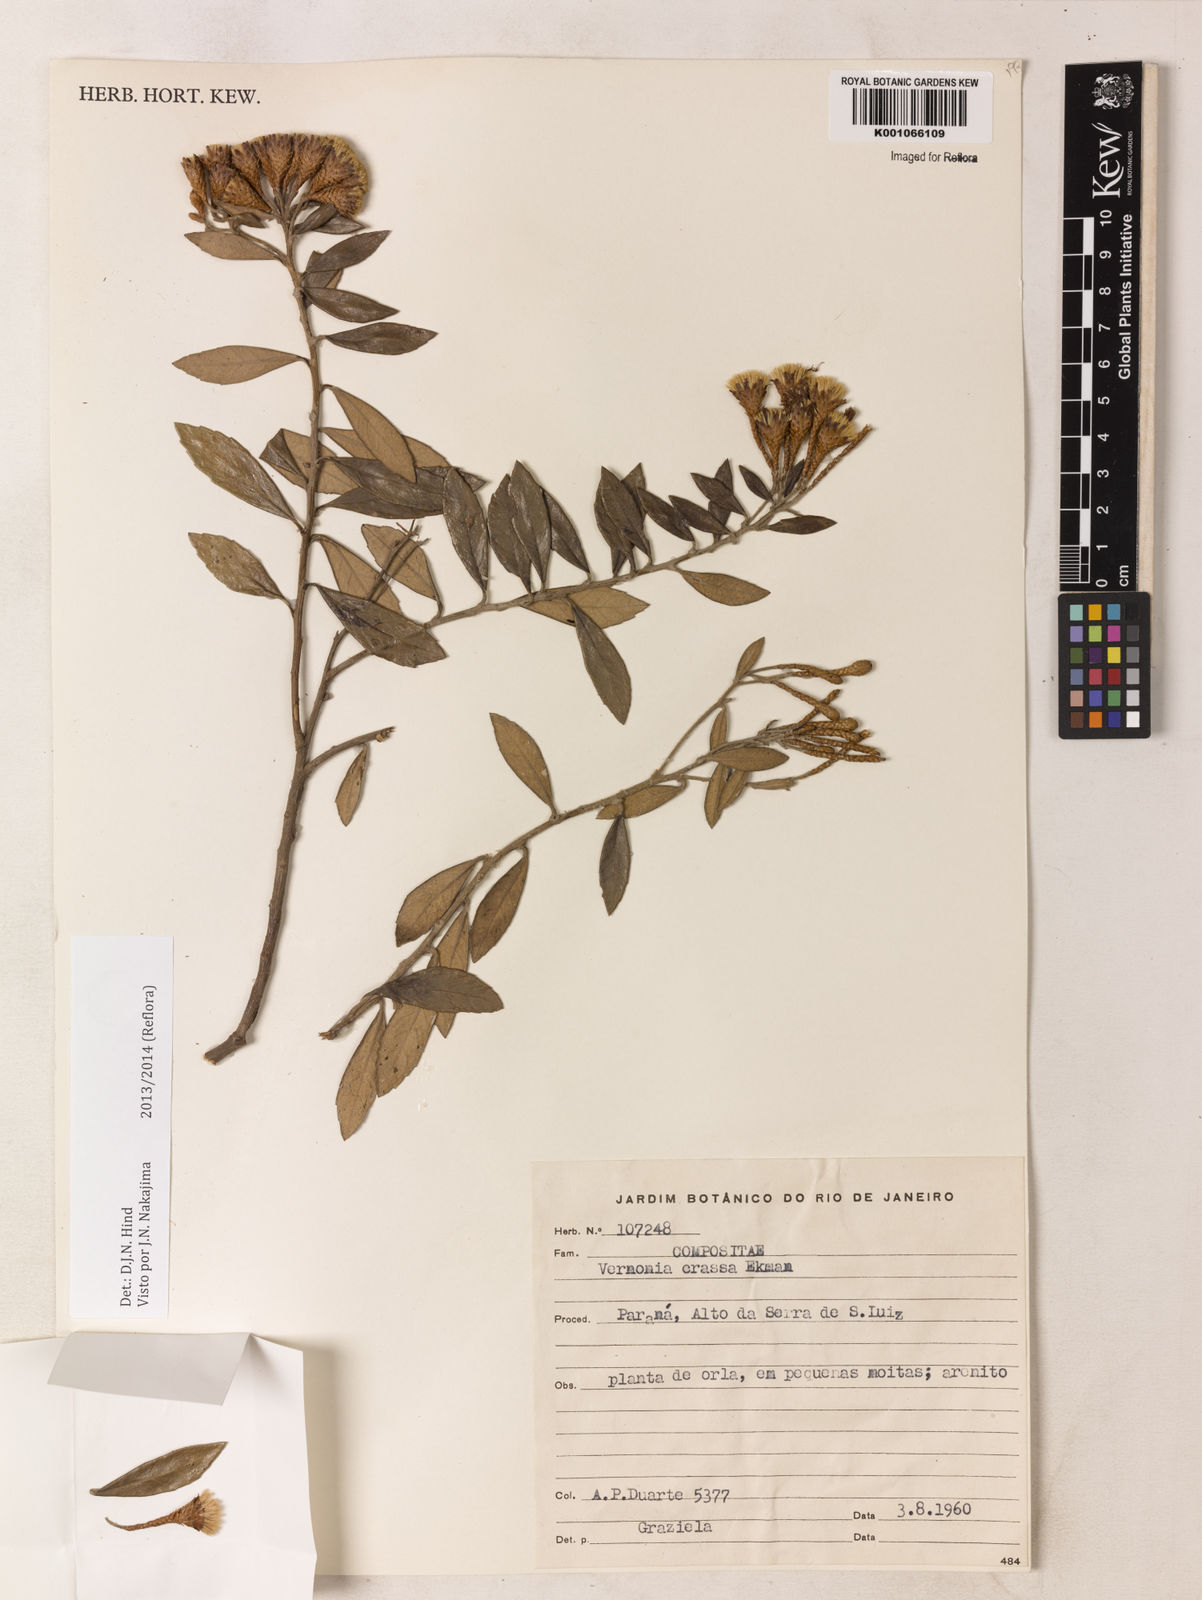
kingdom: Plantae
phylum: Tracheophyta
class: Magnoliopsida
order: Asterales
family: Asteraceae
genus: Vernonanthura
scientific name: Vernonanthura crassa
